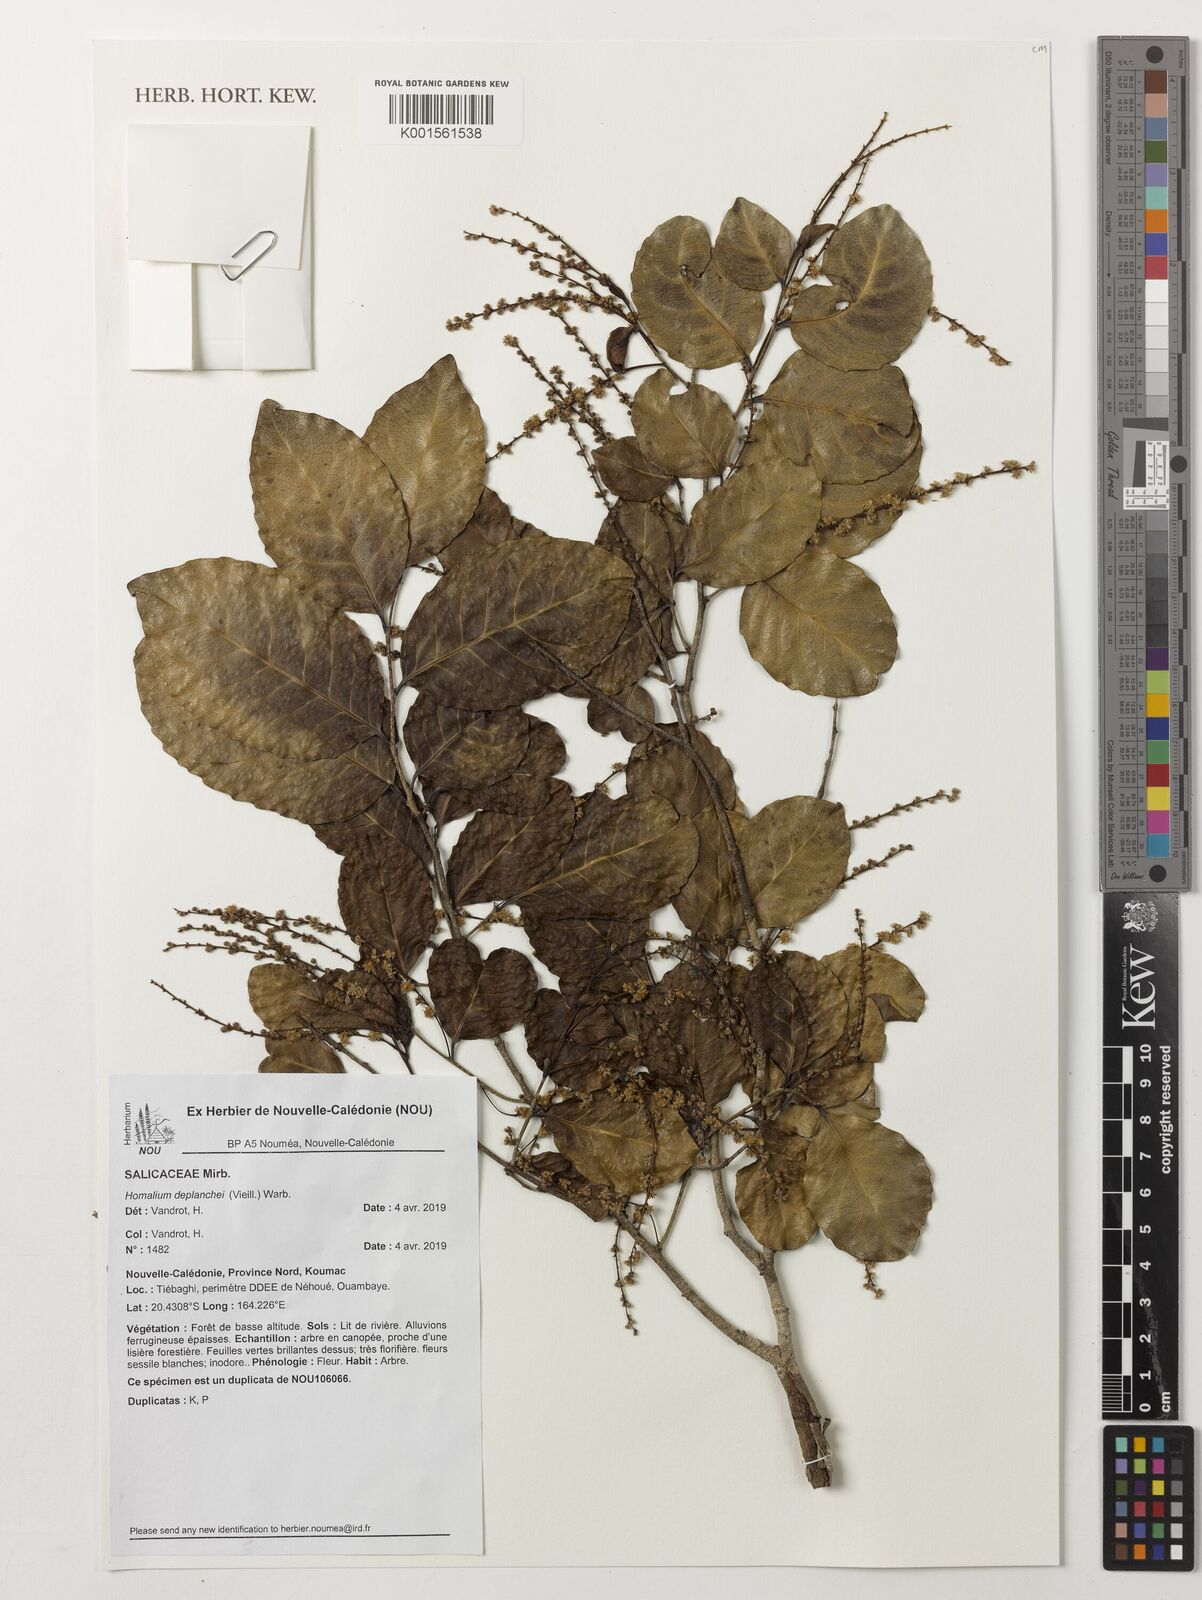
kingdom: Plantae
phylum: Tracheophyta
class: Magnoliopsida
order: Malpighiales
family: Salicaceae
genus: Homalium
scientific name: Homalium deplanchei
